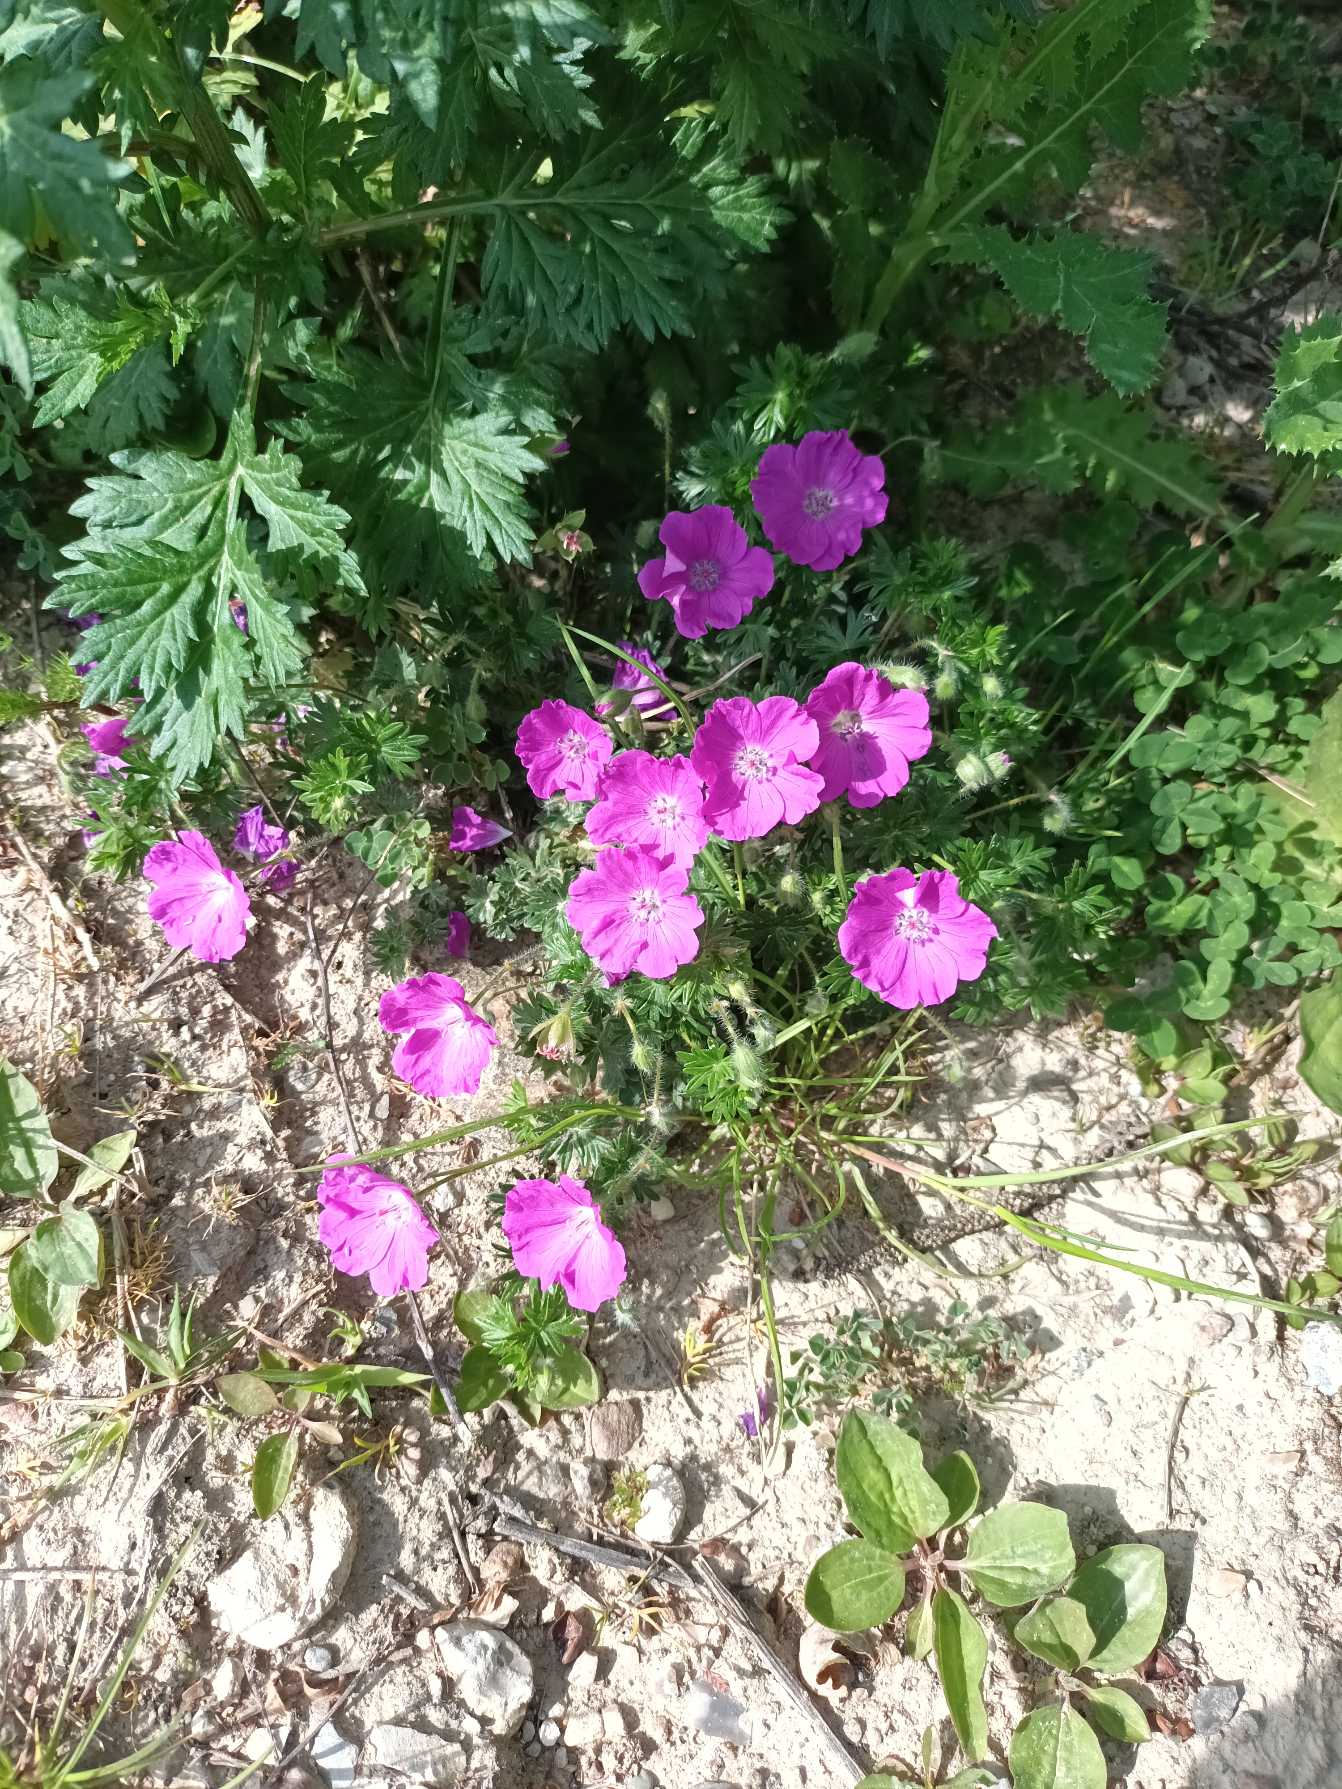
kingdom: Plantae
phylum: Tracheophyta
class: Magnoliopsida
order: Geraniales
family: Geraniaceae
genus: Geranium
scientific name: Geranium sanguineum
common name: Blodrød storkenæb
